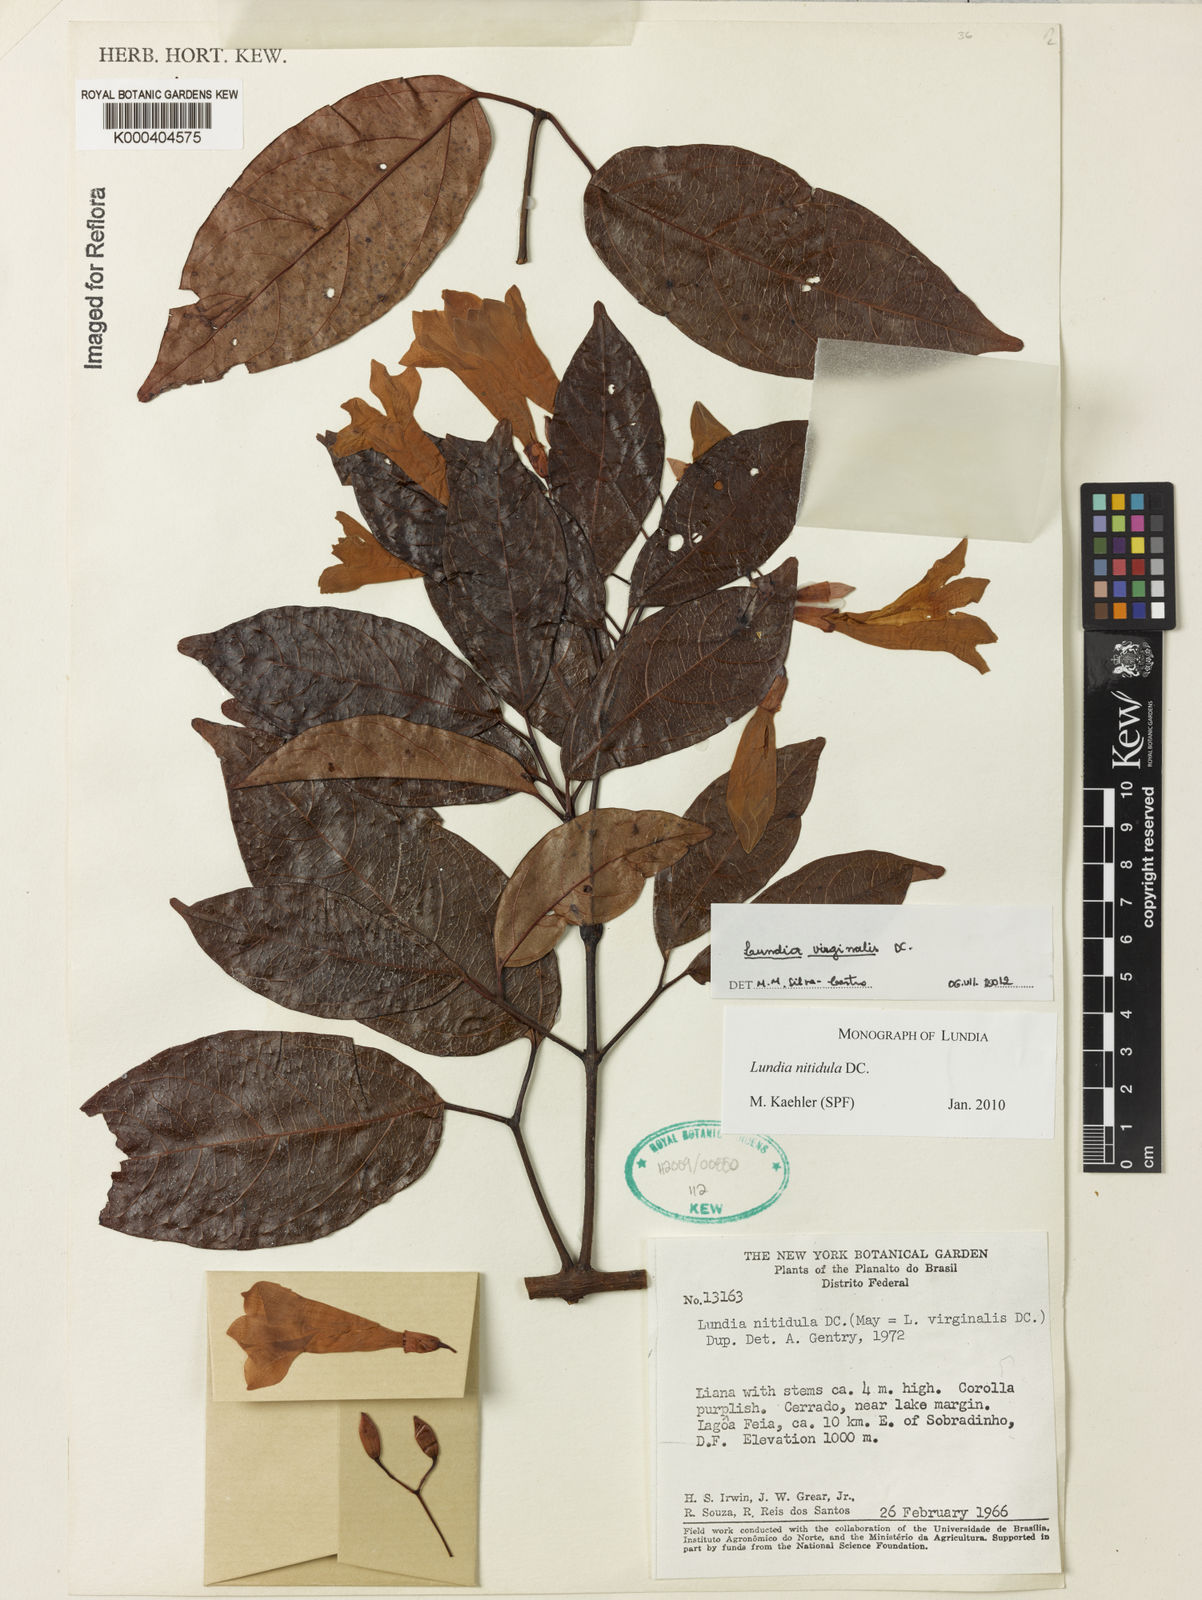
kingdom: Plantae
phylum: Tracheophyta
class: Magnoliopsida
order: Lamiales
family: Bignoniaceae
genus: Lundia
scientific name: Lundia virginalis
